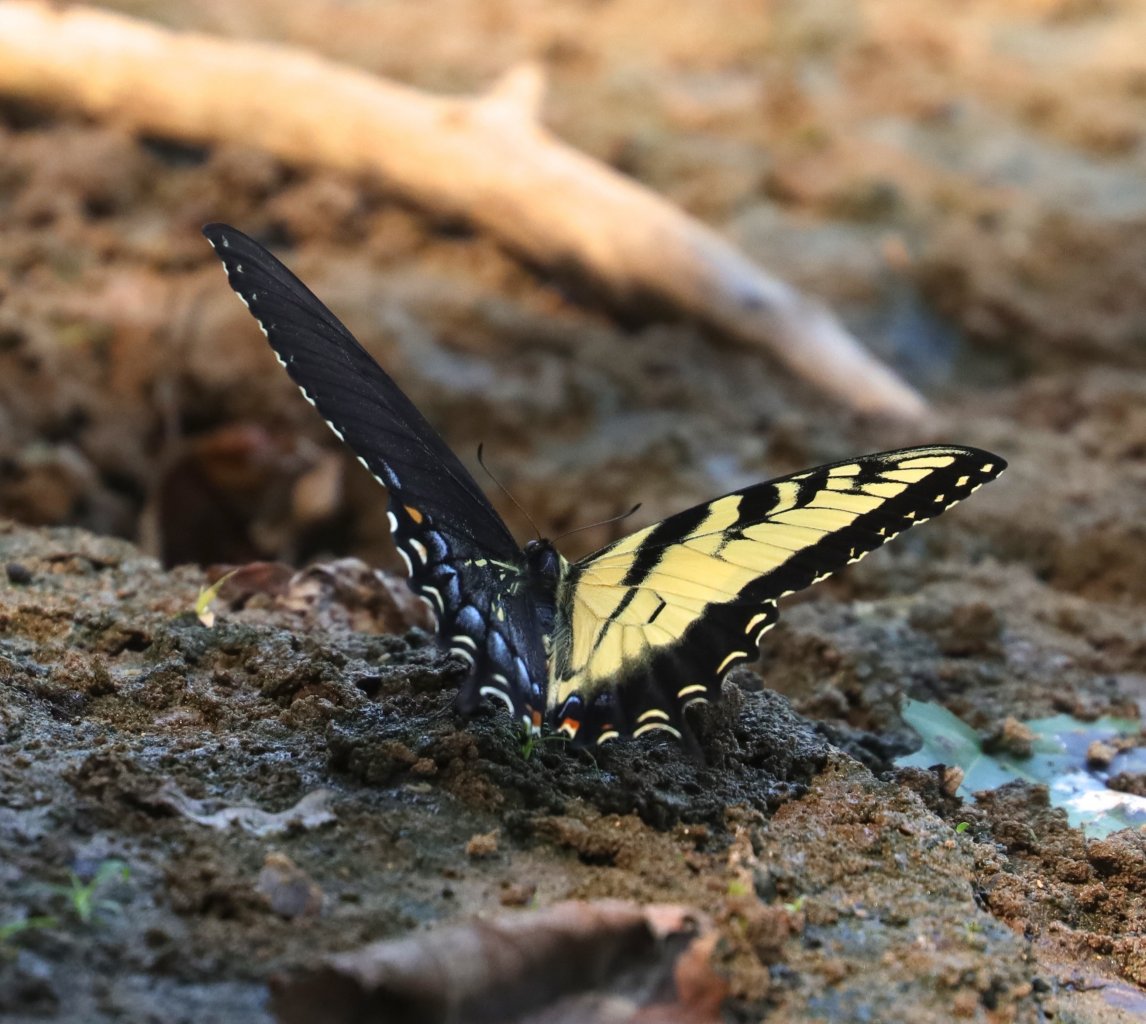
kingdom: Animalia
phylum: Arthropoda
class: Insecta
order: Lepidoptera
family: Papilionidae
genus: Pterourus
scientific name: Pterourus glaucus
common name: Eastern Tiger Swallowtail
